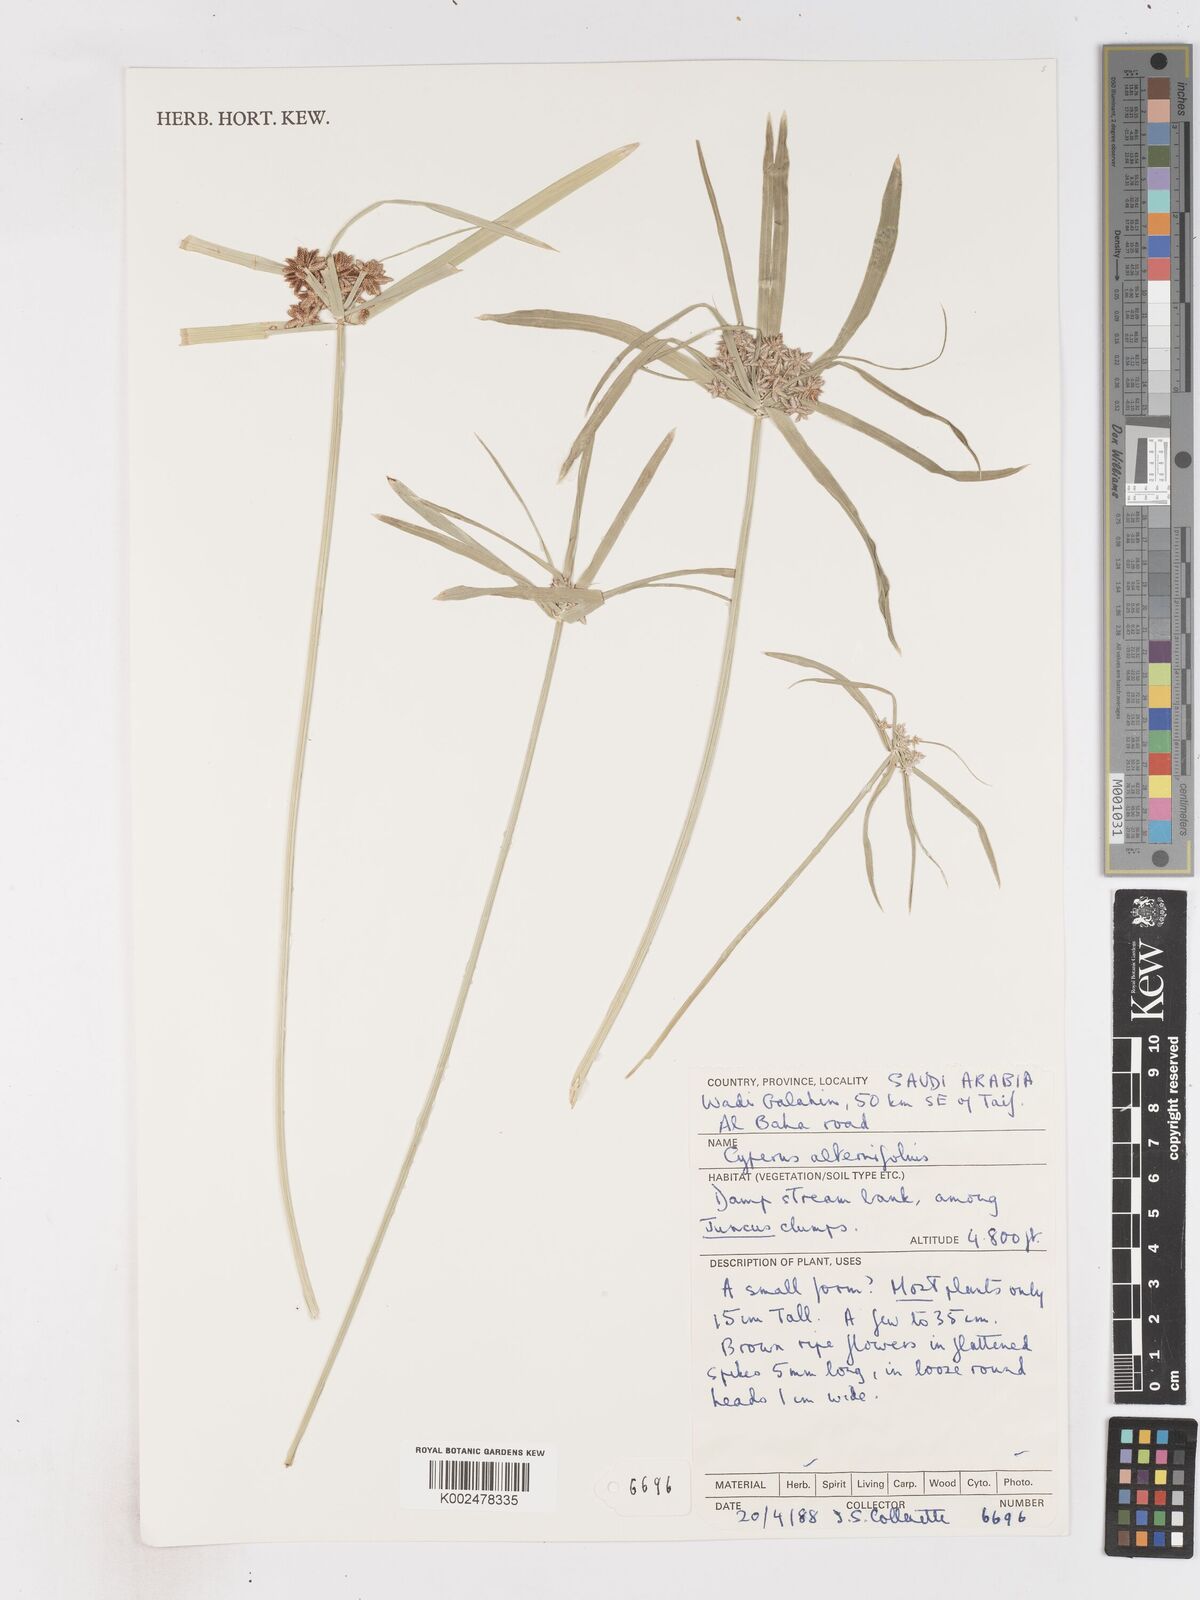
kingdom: Plantae
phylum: Tracheophyta
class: Liliopsida
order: Poales
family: Cyperaceae
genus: Cyperus
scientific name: Cyperus alternifolius
